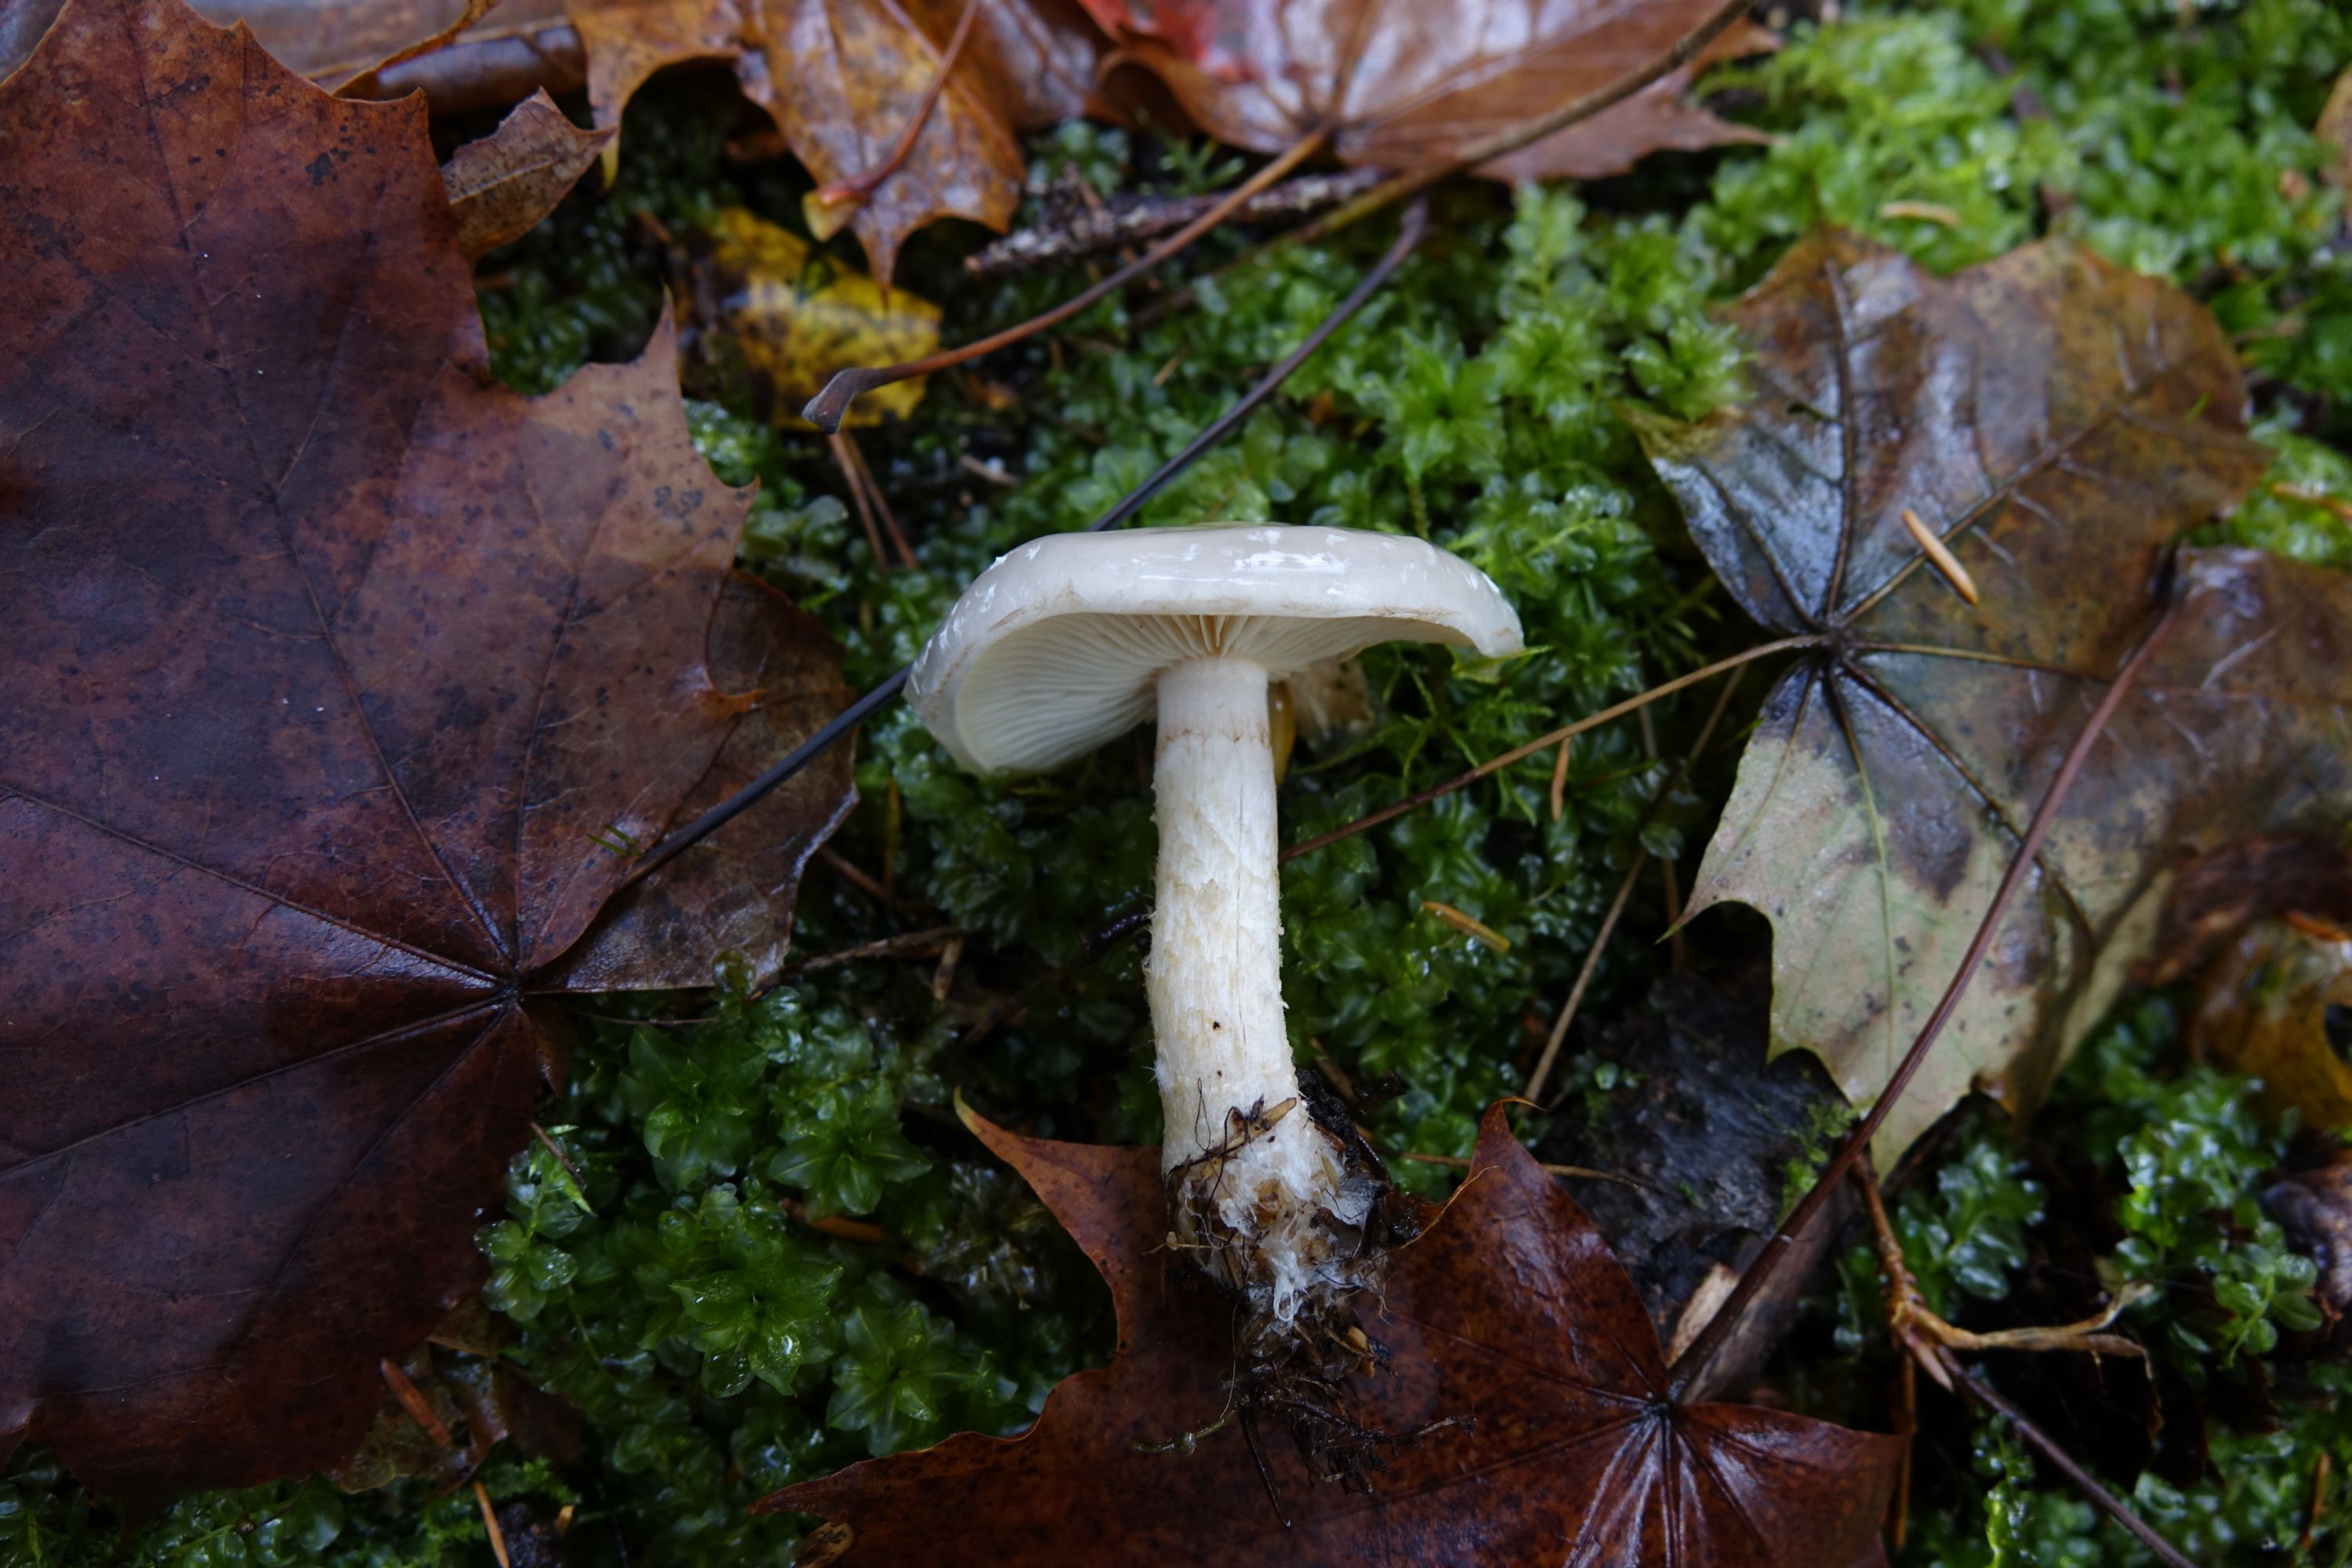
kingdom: Fungi
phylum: Basidiomycota
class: Agaricomycetes
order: Agaricales
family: Strophariaceae
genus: Pholiota
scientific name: Pholiota lenta
